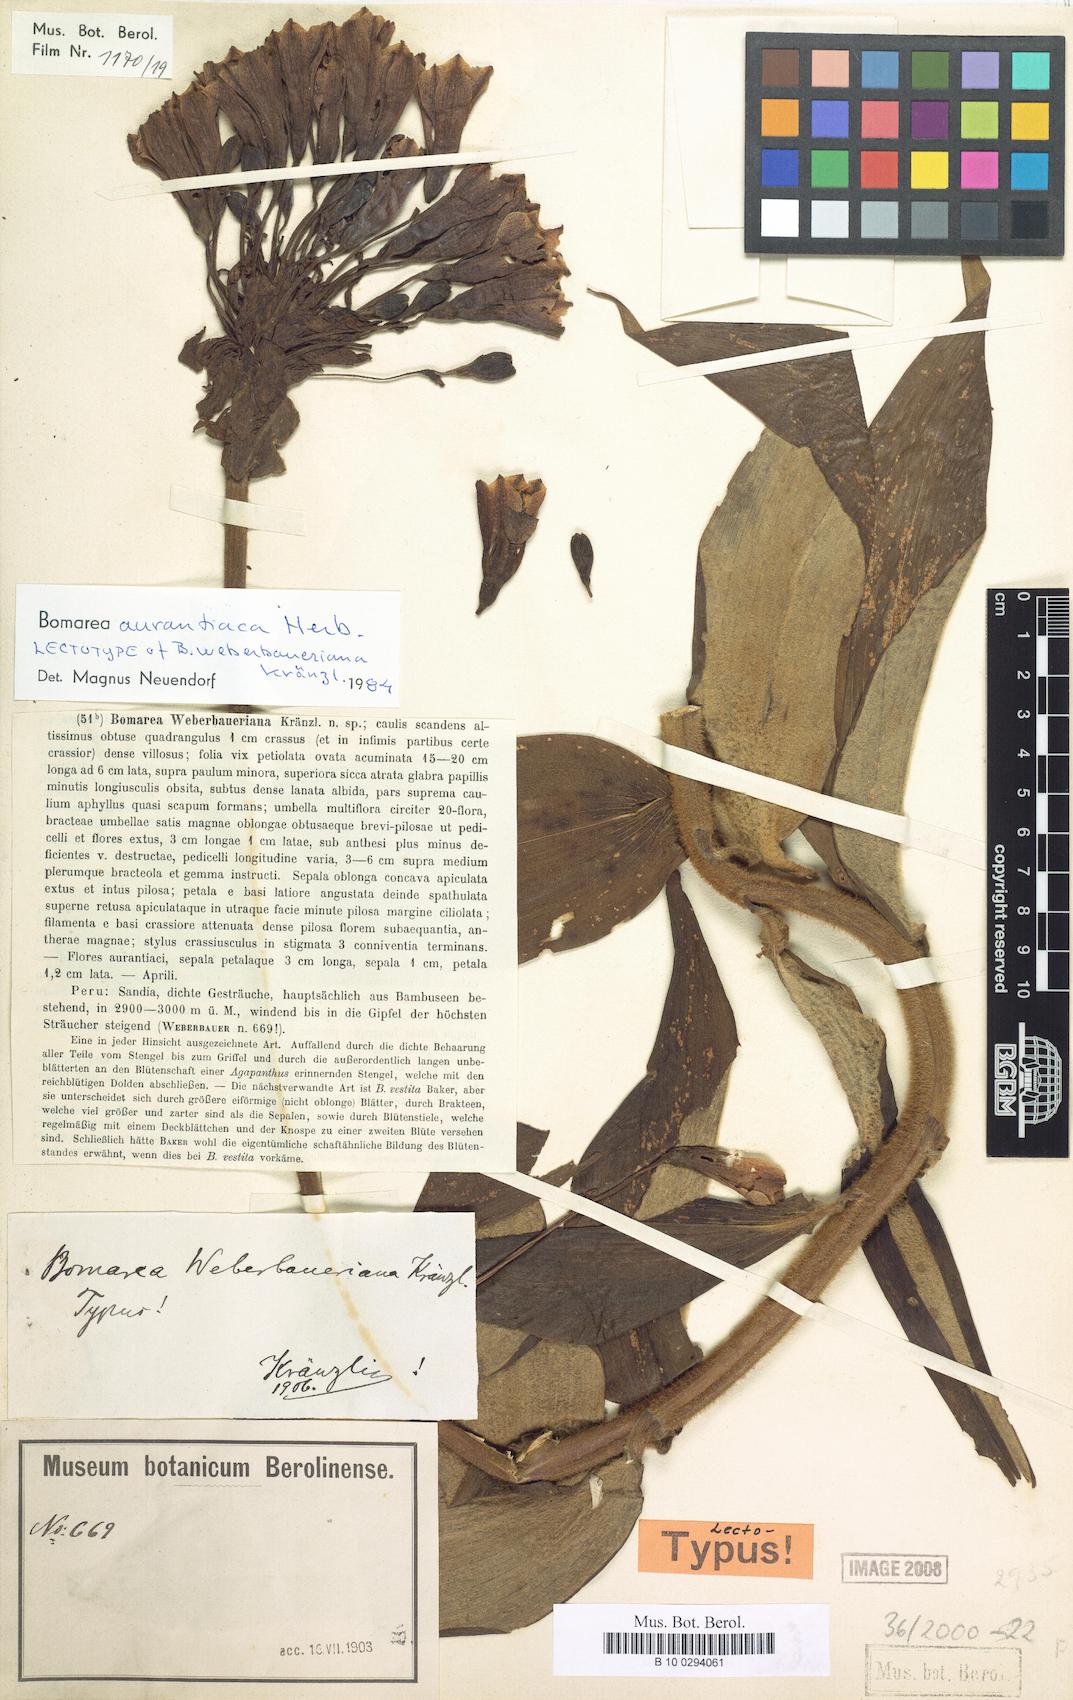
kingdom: Plantae
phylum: Tracheophyta
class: Liliopsida
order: Liliales
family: Alstroemeriaceae
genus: Bomarea
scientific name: Bomarea aurantiaca
